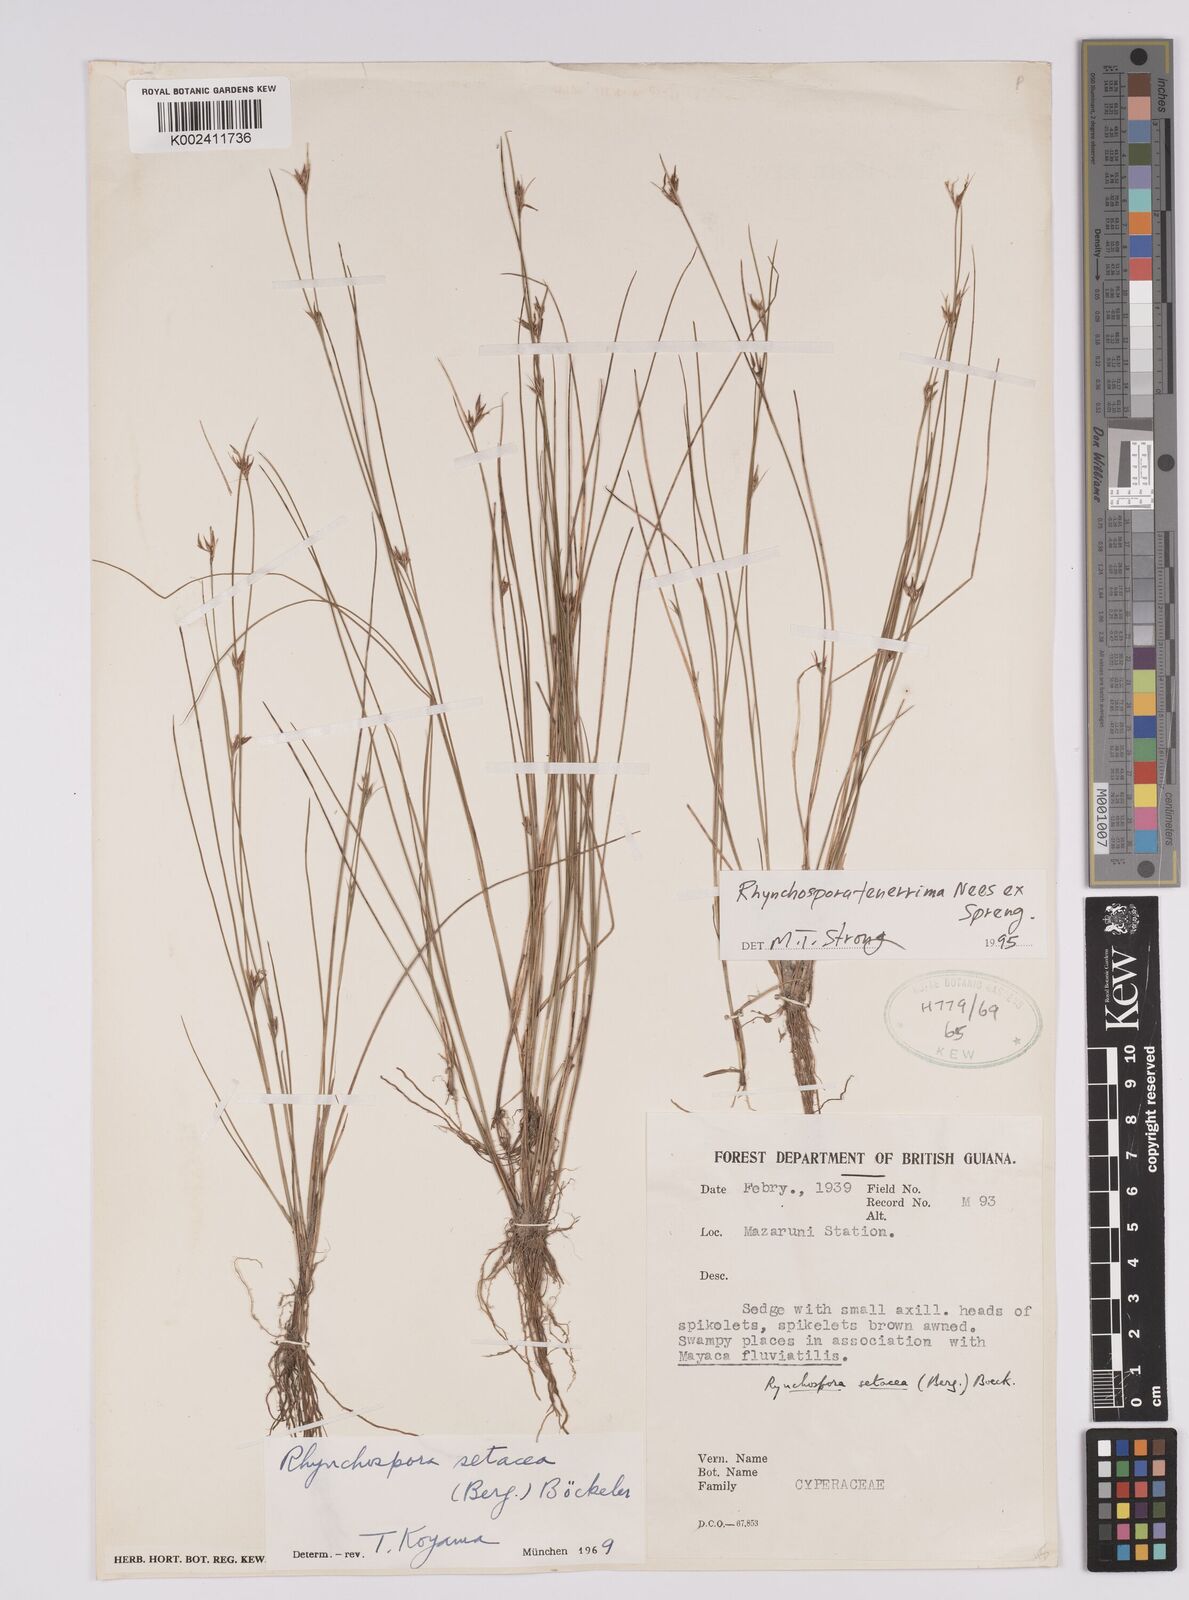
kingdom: Plantae
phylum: Tracheophyta
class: Liliopsida
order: Poales
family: Cyperaceae
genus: Rhynchospora
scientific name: Rhynchospora tenerrima
